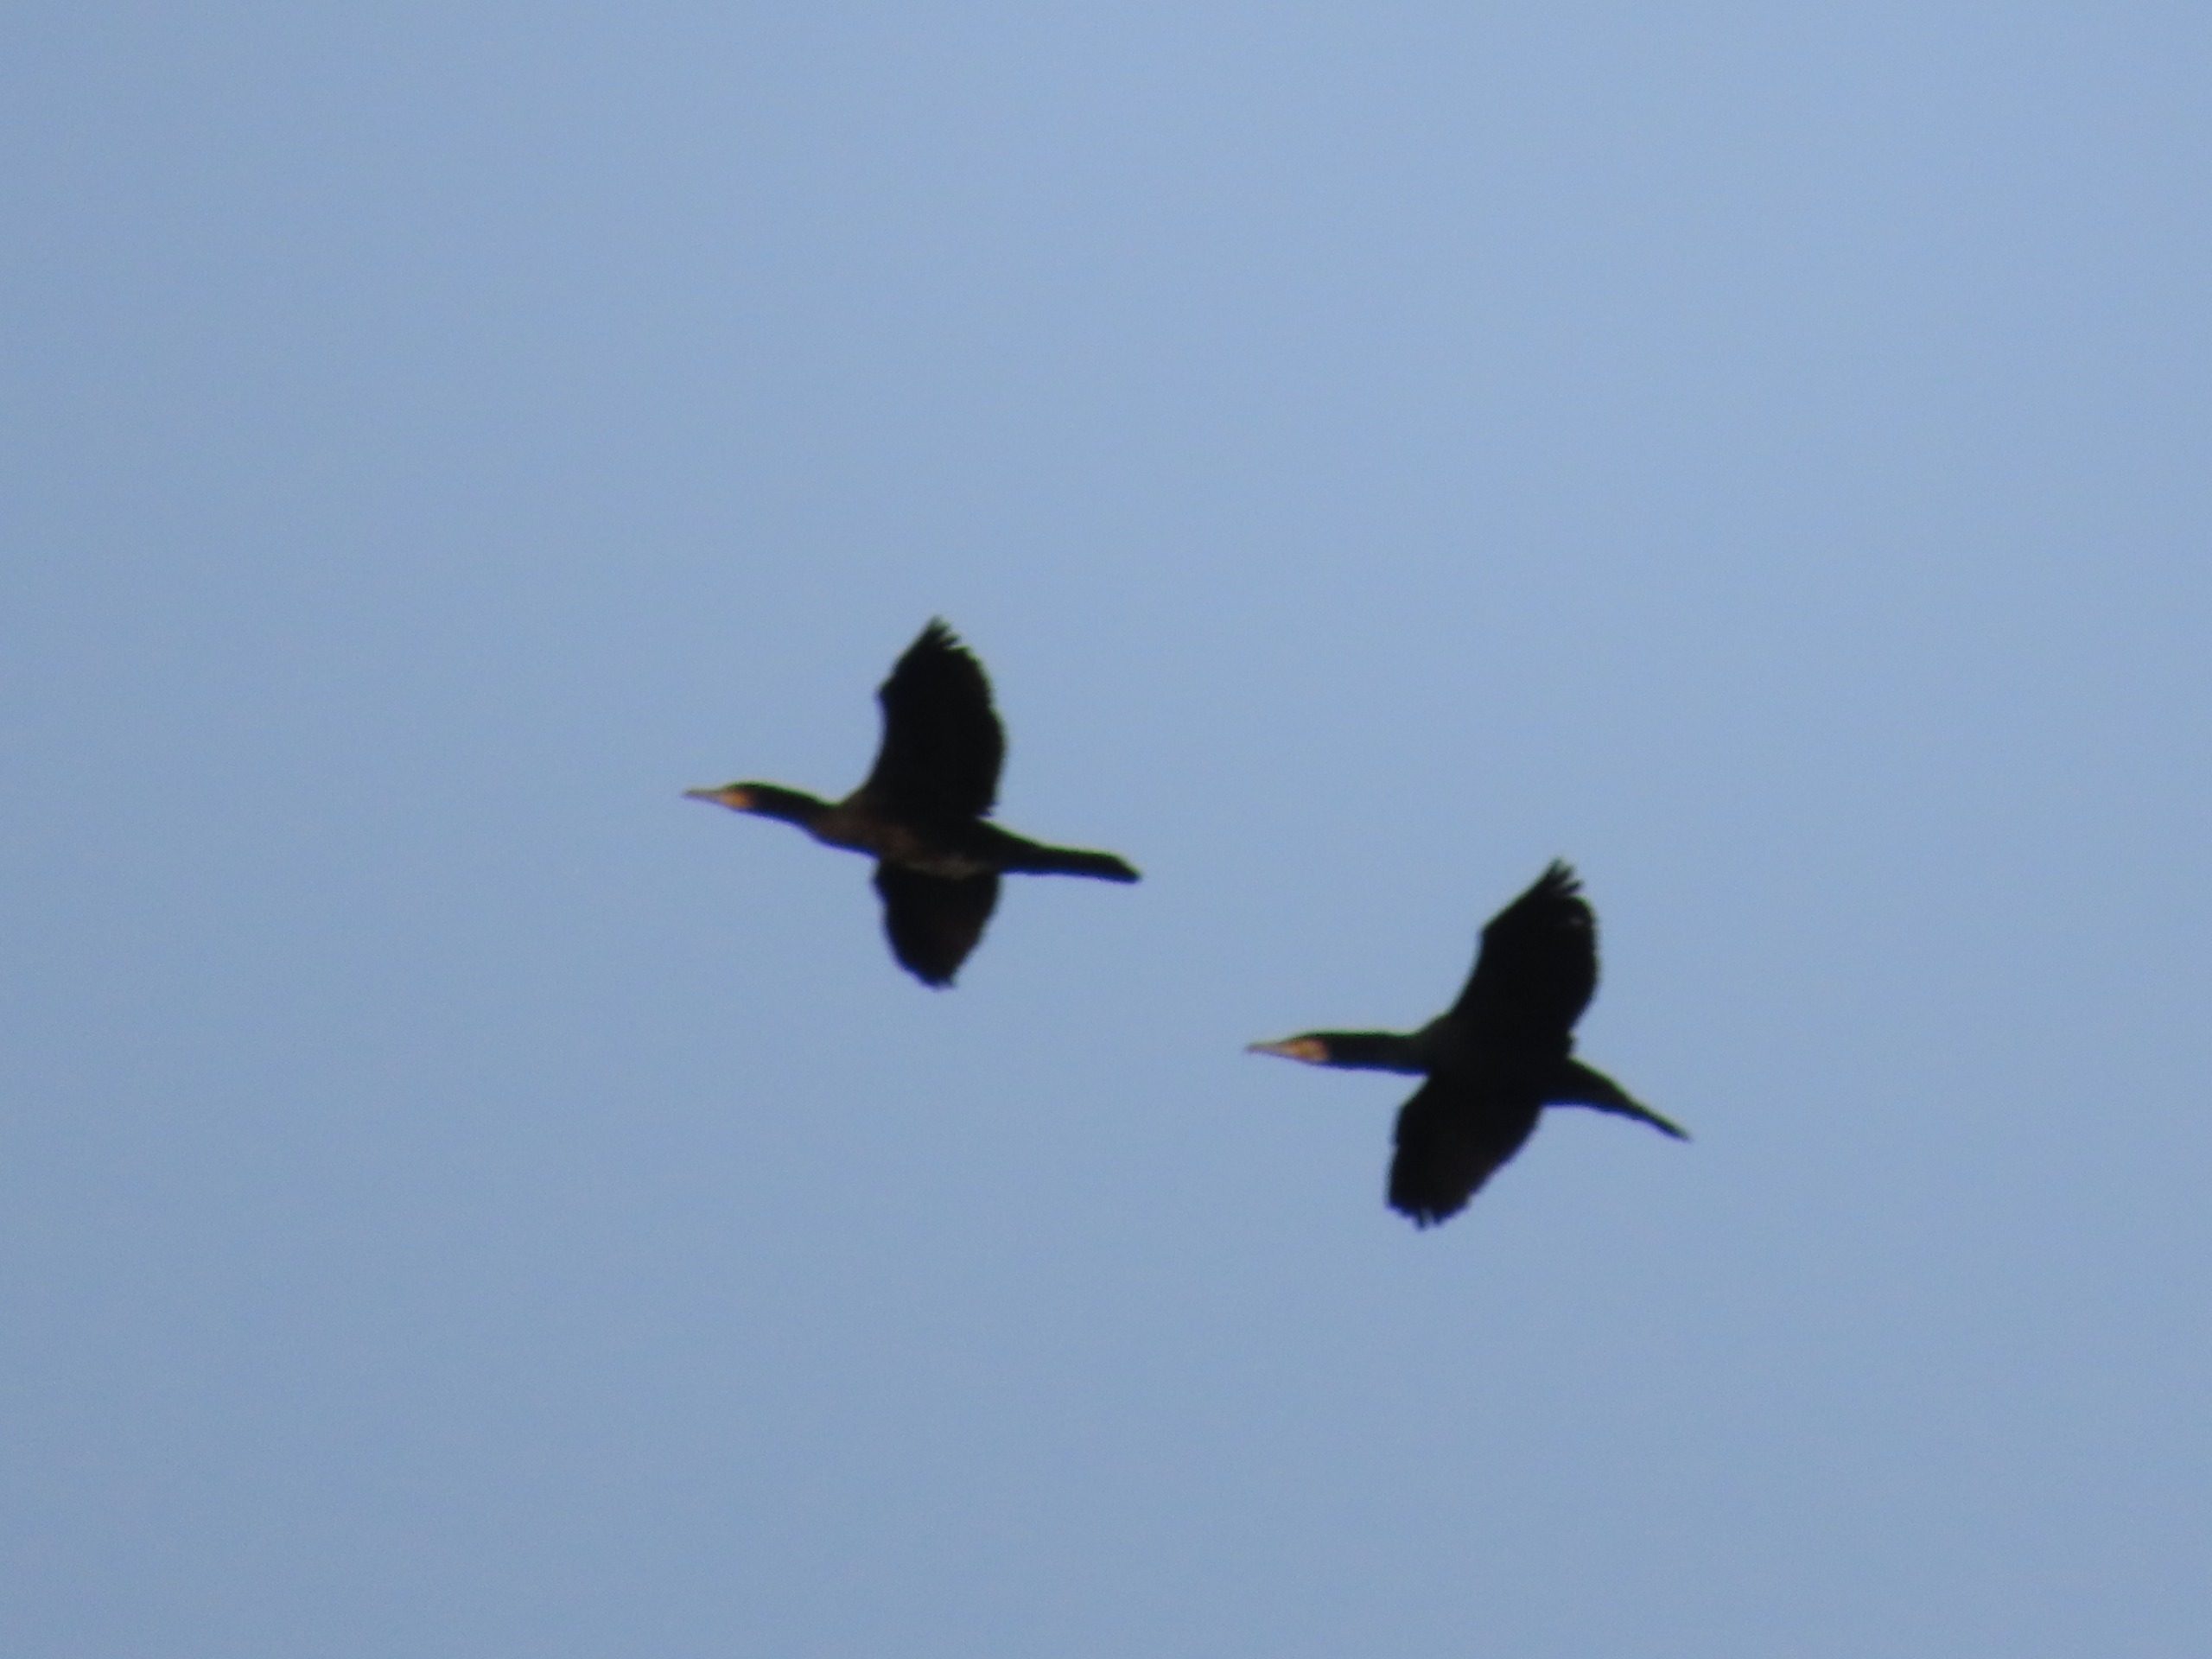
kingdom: Animalia
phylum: Chordata
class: Aves
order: Suliformes
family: Phalacrocoracidae
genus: Phalacrocorax
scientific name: Phalacrocorax carbo
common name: Skarv
